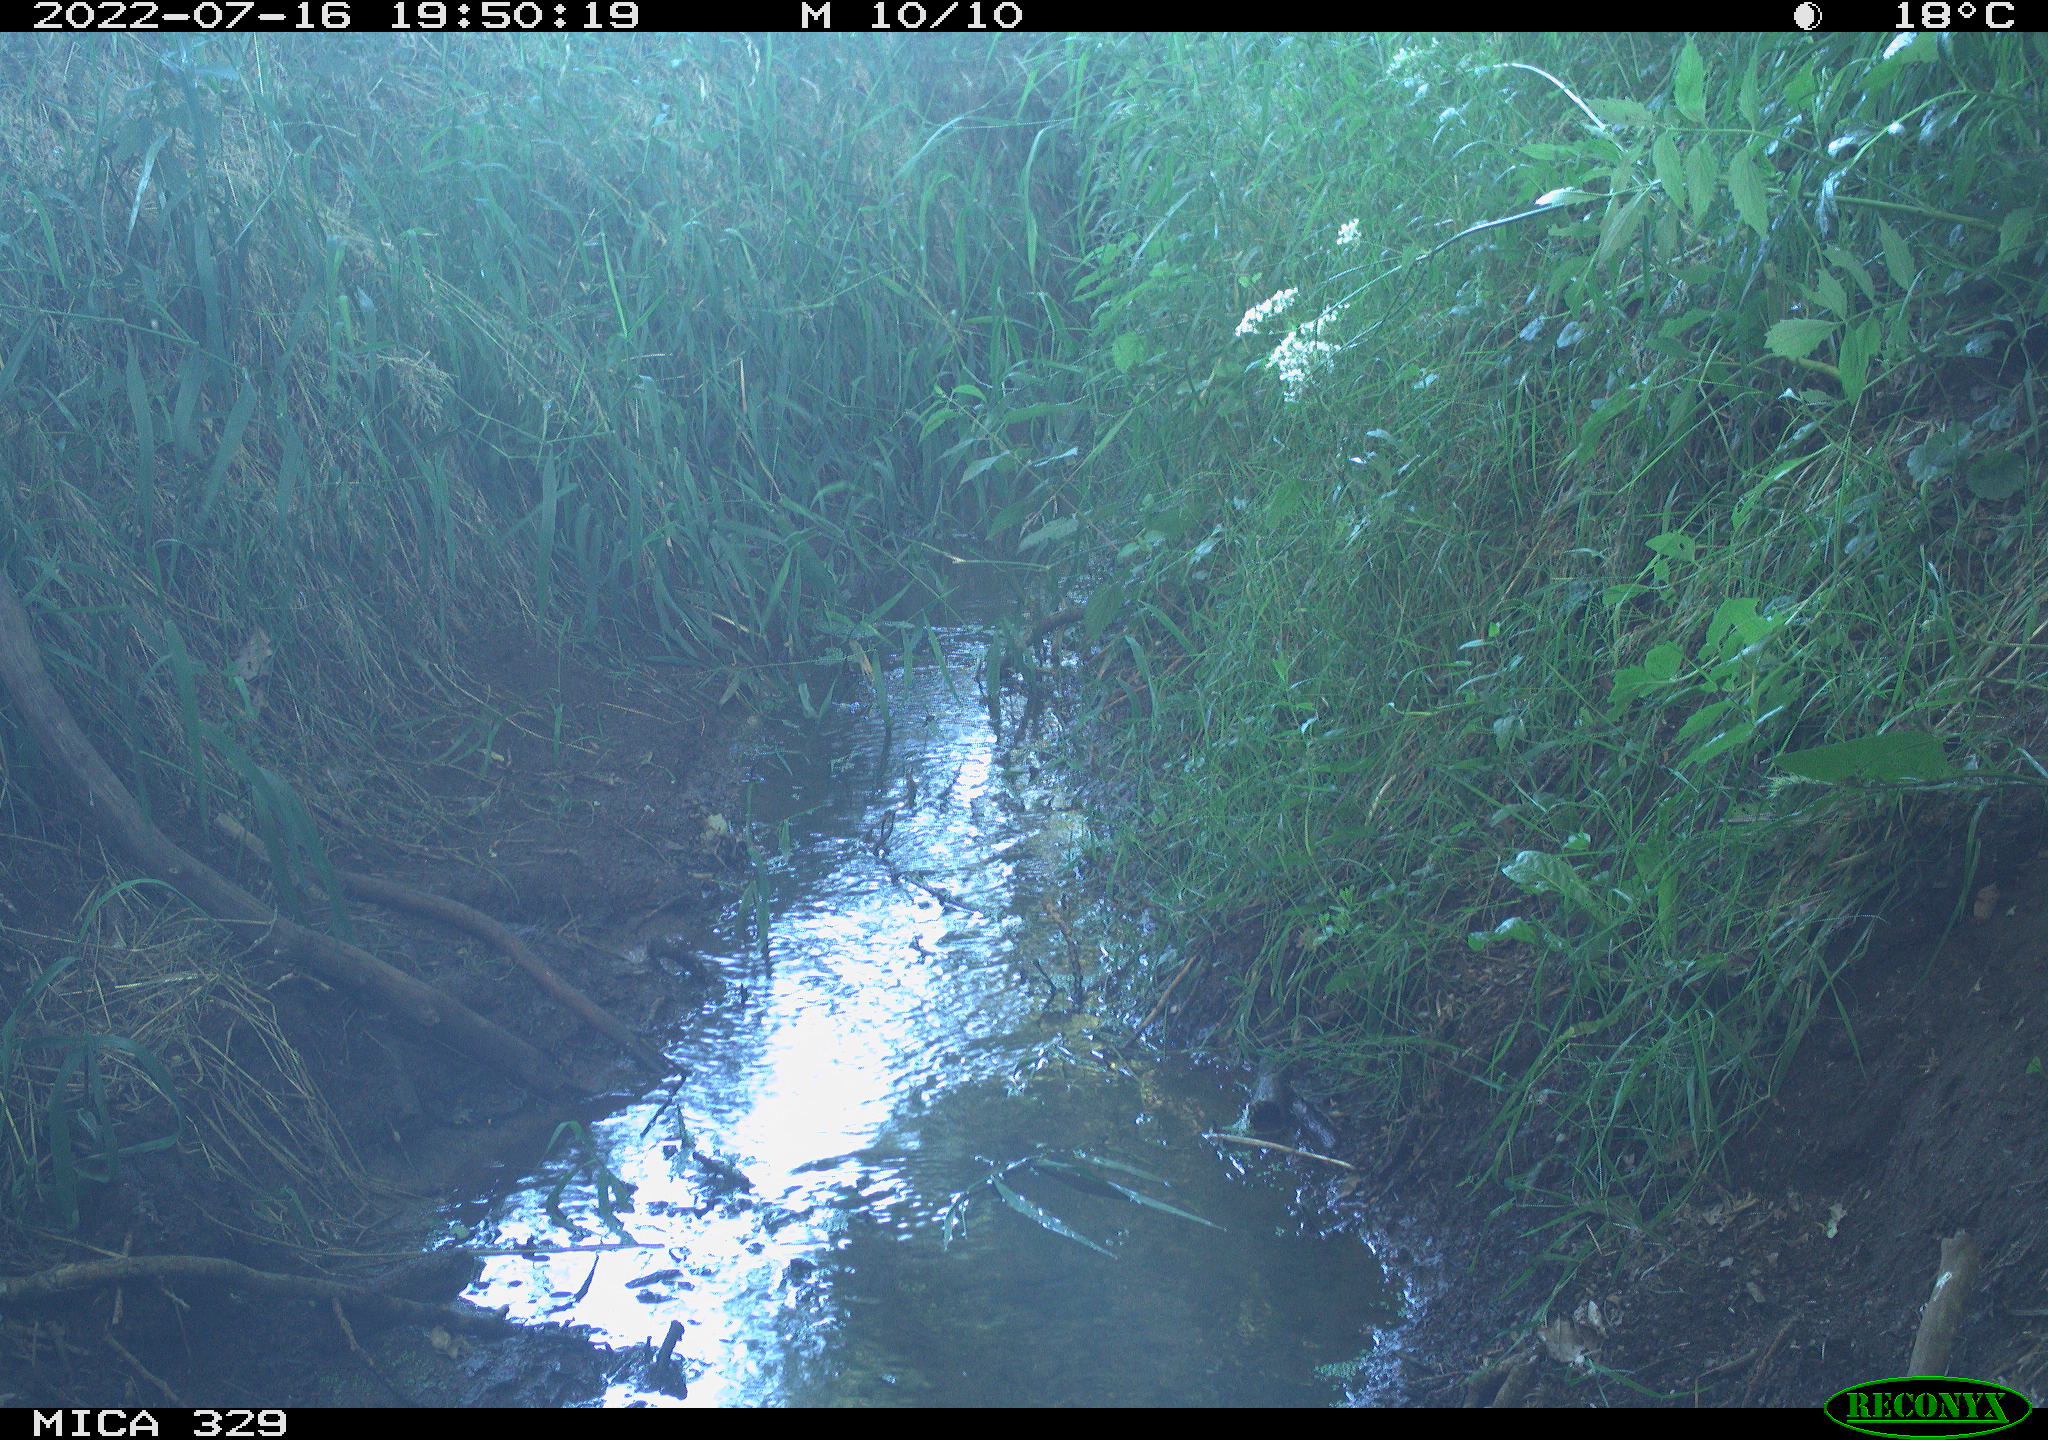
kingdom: Animalia
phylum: Chordata
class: Aves
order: Columbiformes
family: Columbidae
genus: Columba
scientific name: Columba palumbus
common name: Common wood pigeon
